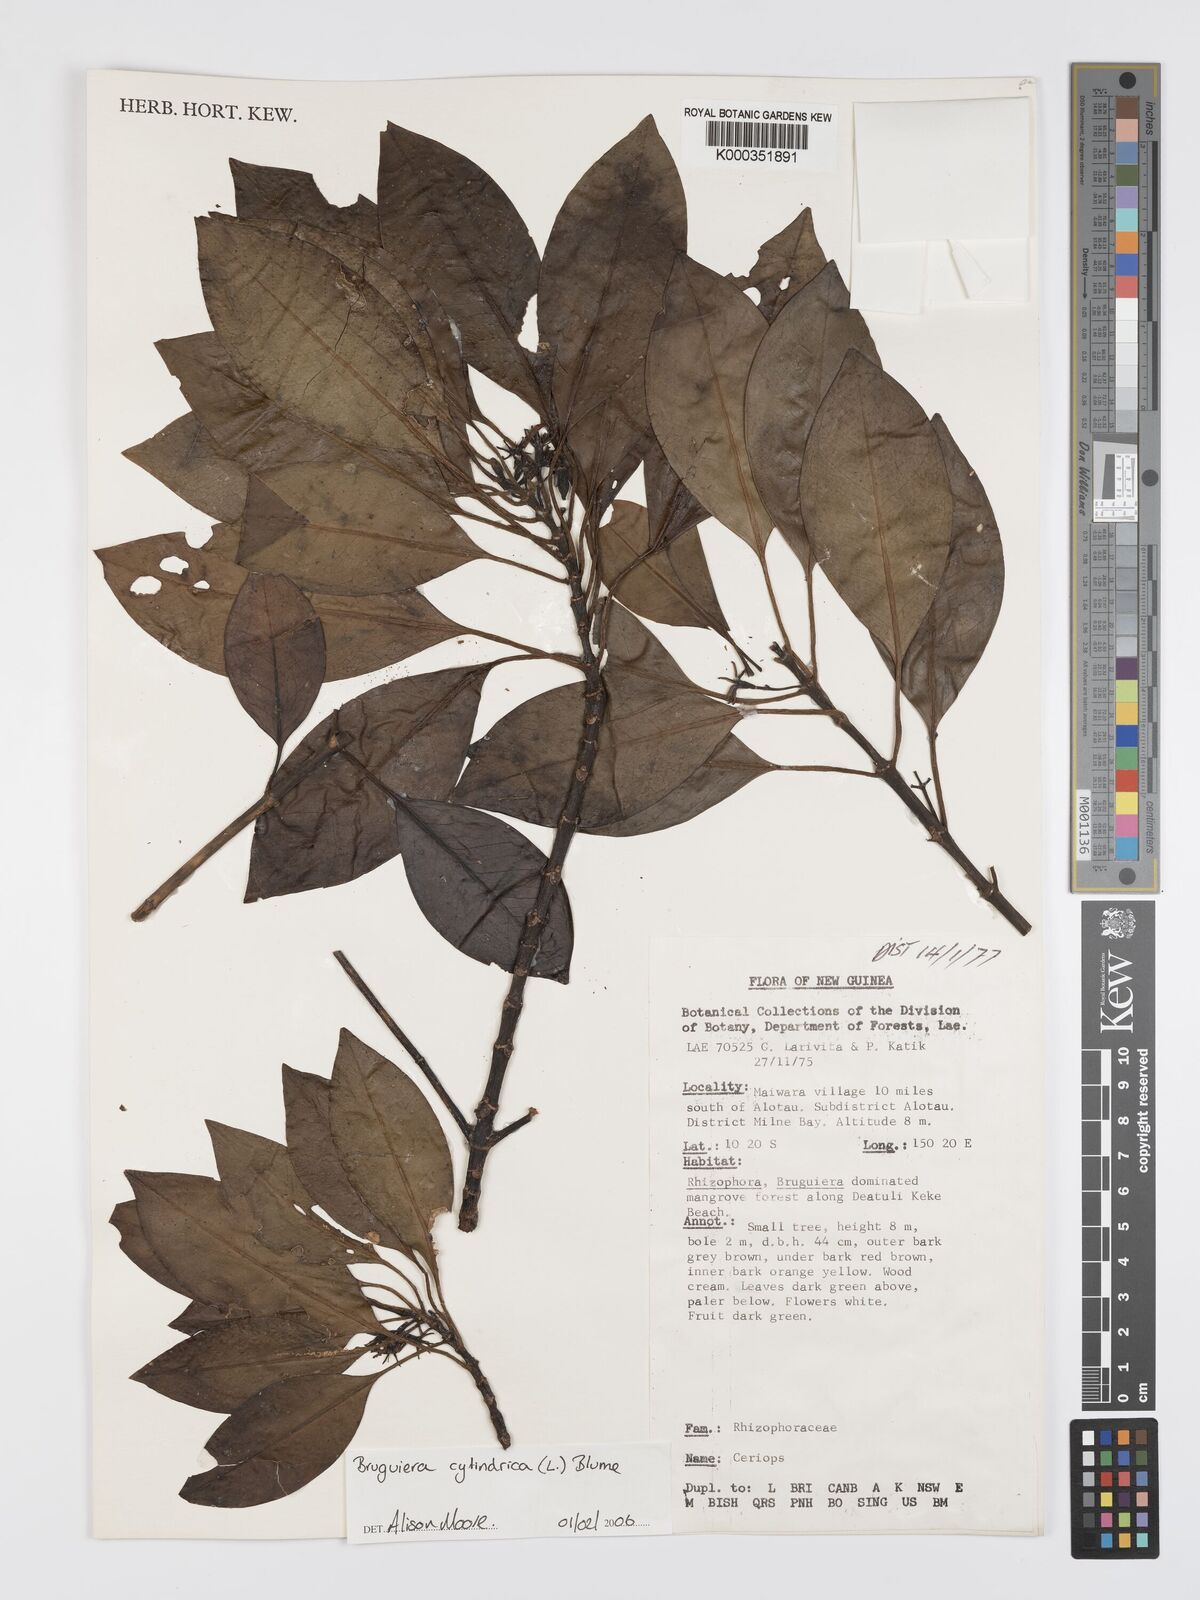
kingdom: Plantae
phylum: Tracheophyta
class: Magnoliopsida
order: Malpighiales
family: Rhizophoraceae
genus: Bruguiera
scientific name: Bruguiera cylindrica
